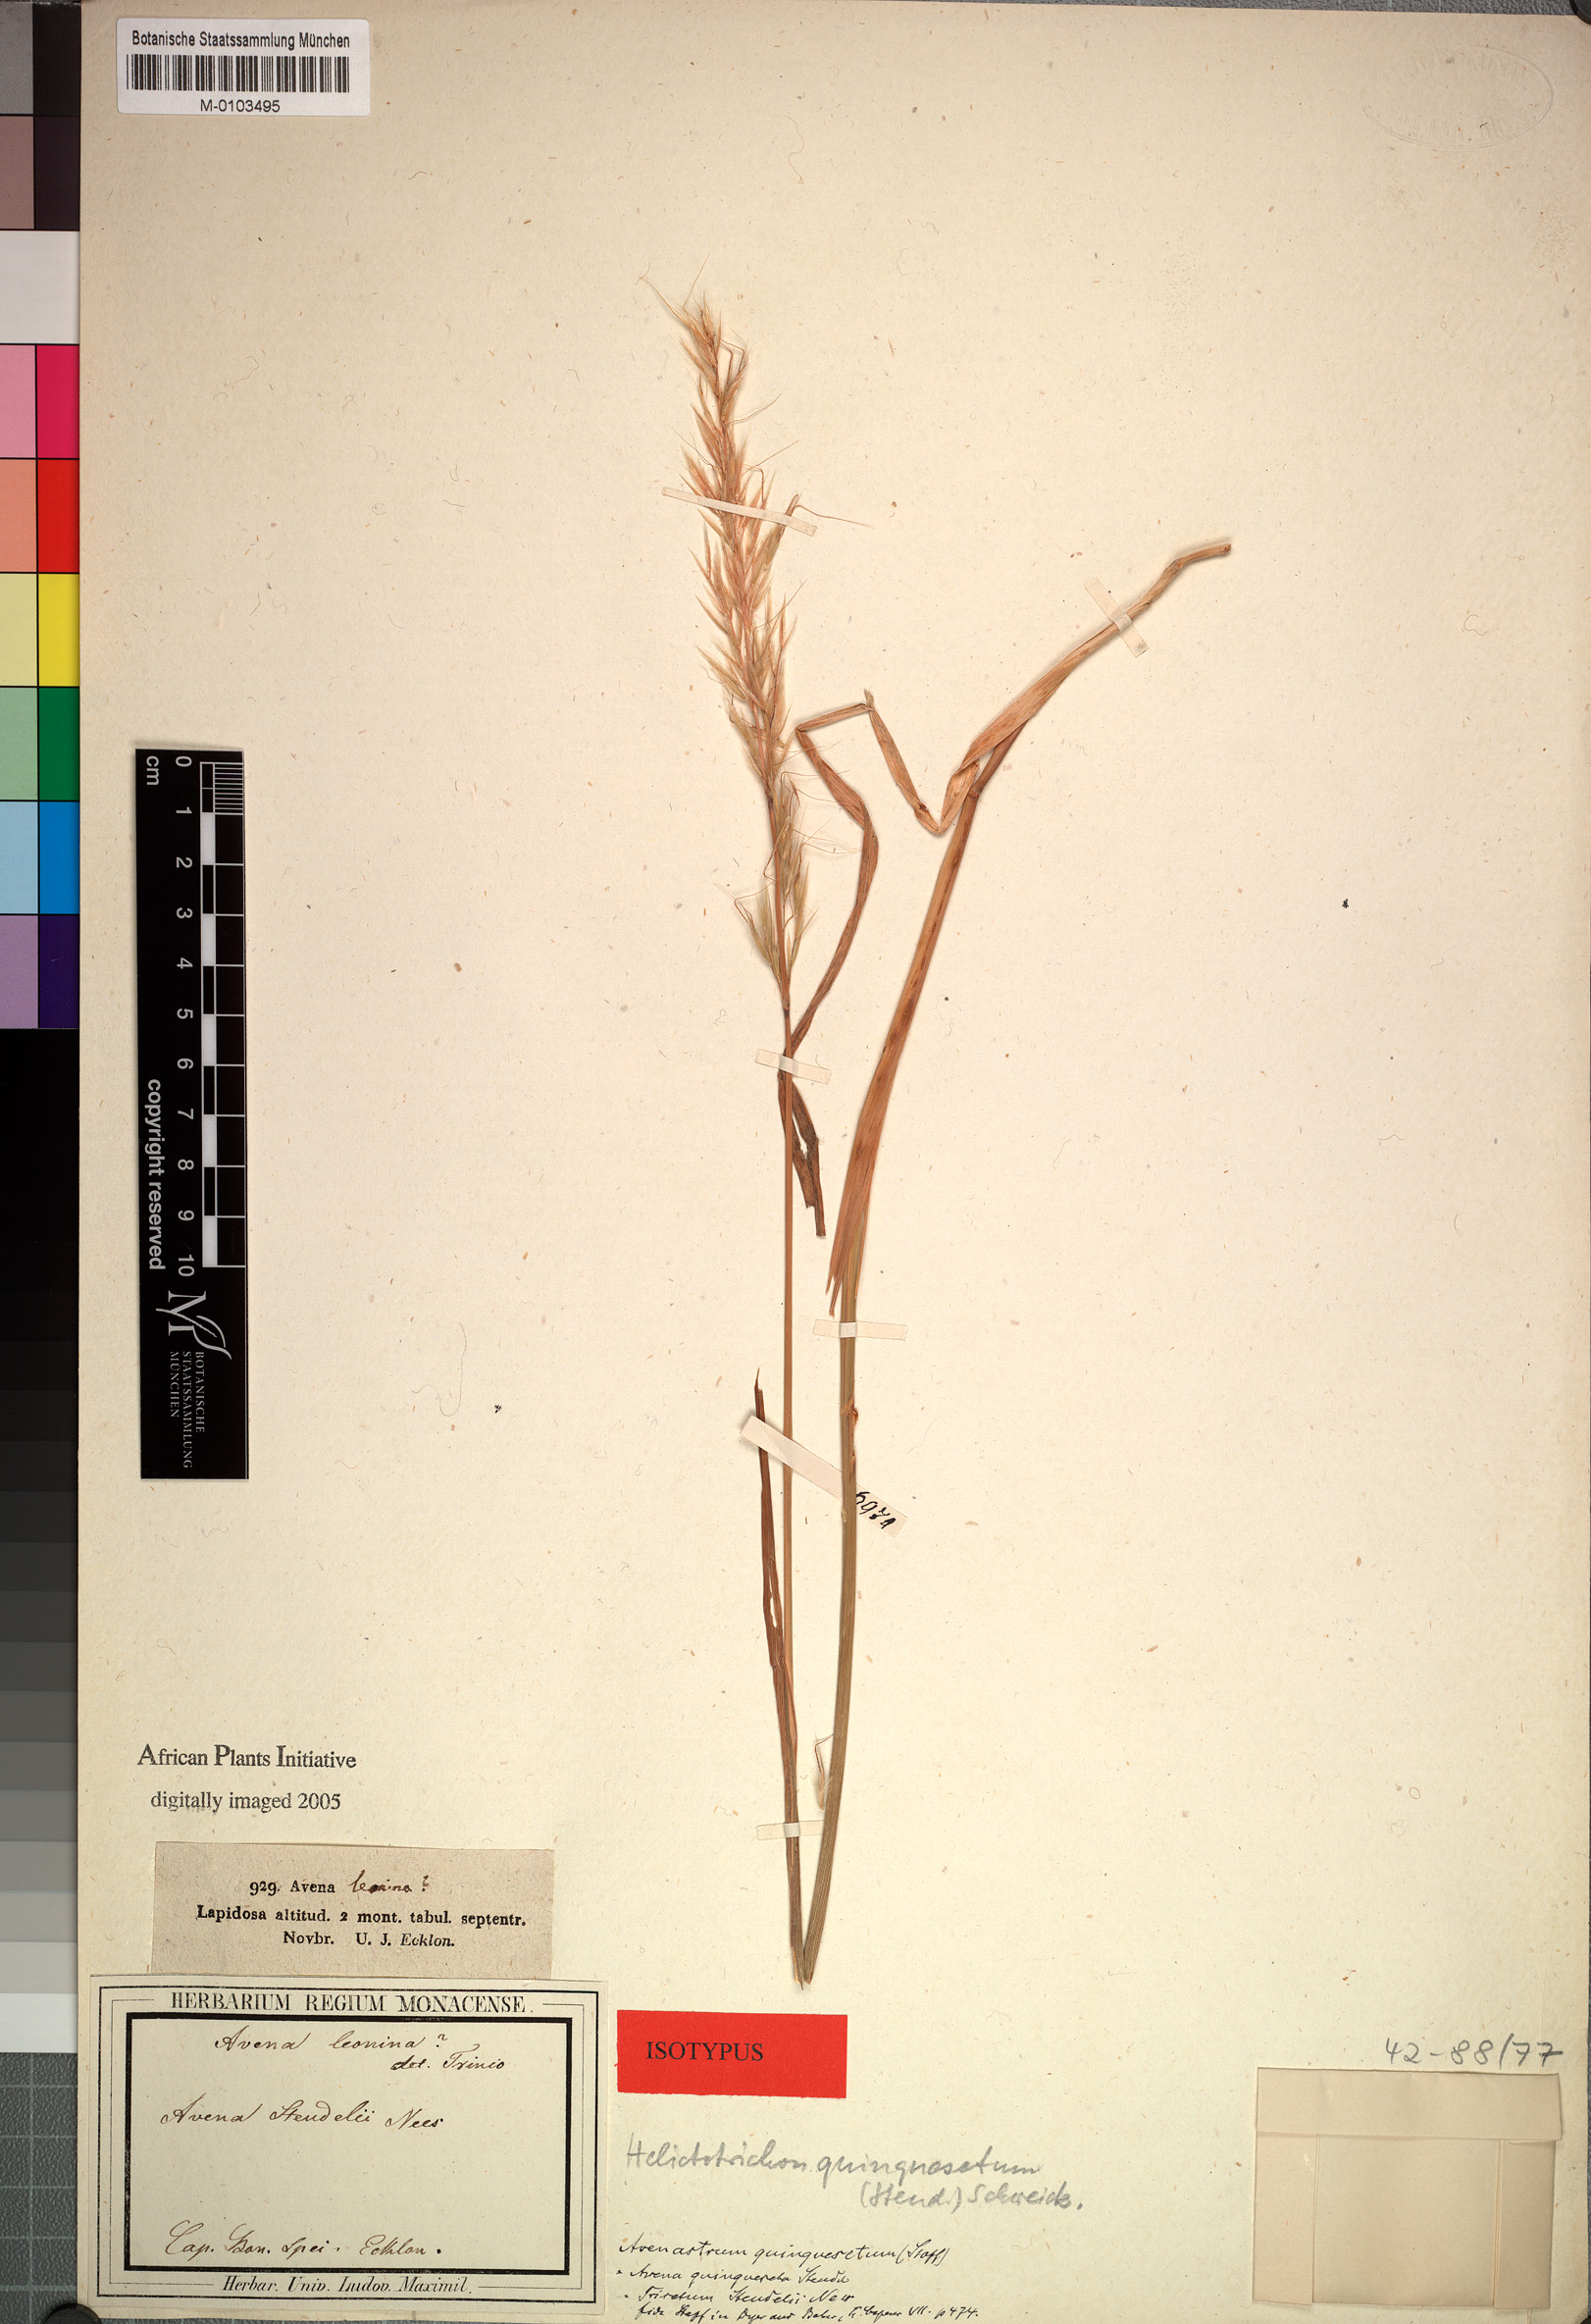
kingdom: Plantae
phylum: Tracheophyta
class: Liliopsida
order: Poales
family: Poaceae
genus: Trisetopsis
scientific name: Trisetopsis quinqueseta
